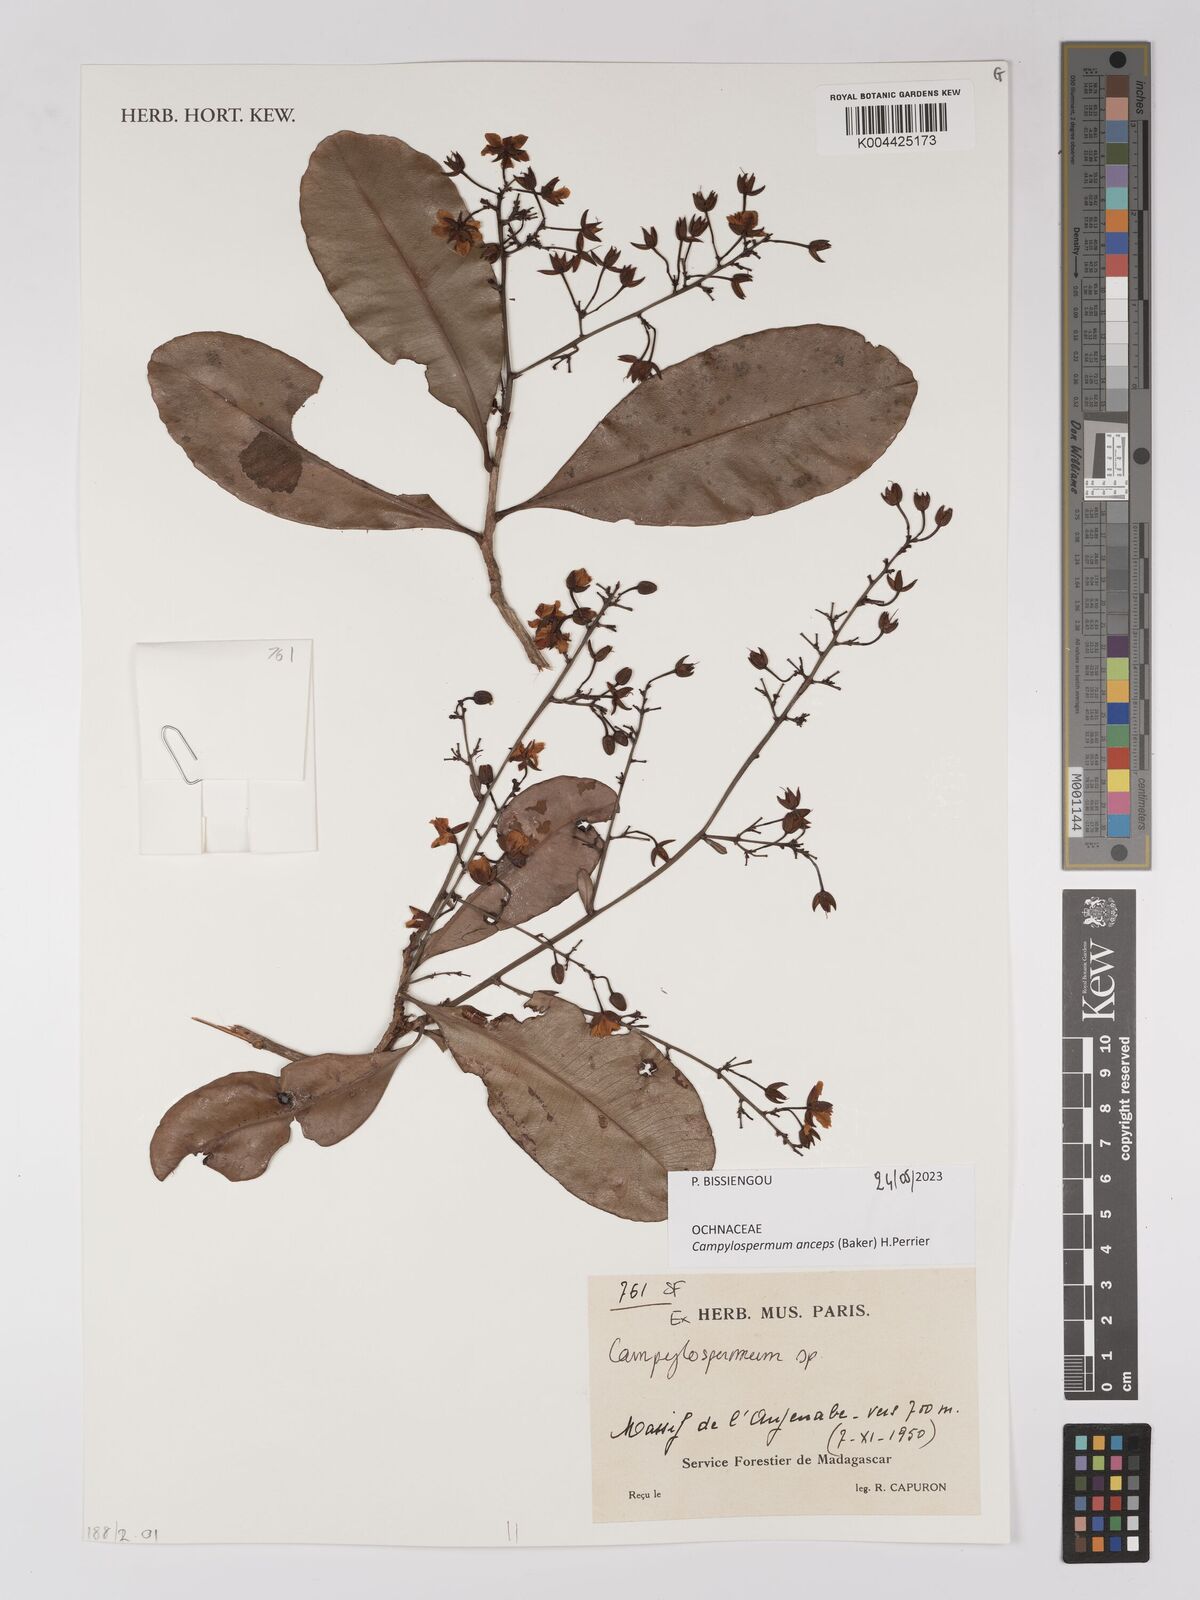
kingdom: Plantae
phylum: Tracheophyta
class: Magnoliopsida
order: Malpighiales
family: Ochnaceae
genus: Campylospermum
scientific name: Campylospermum
